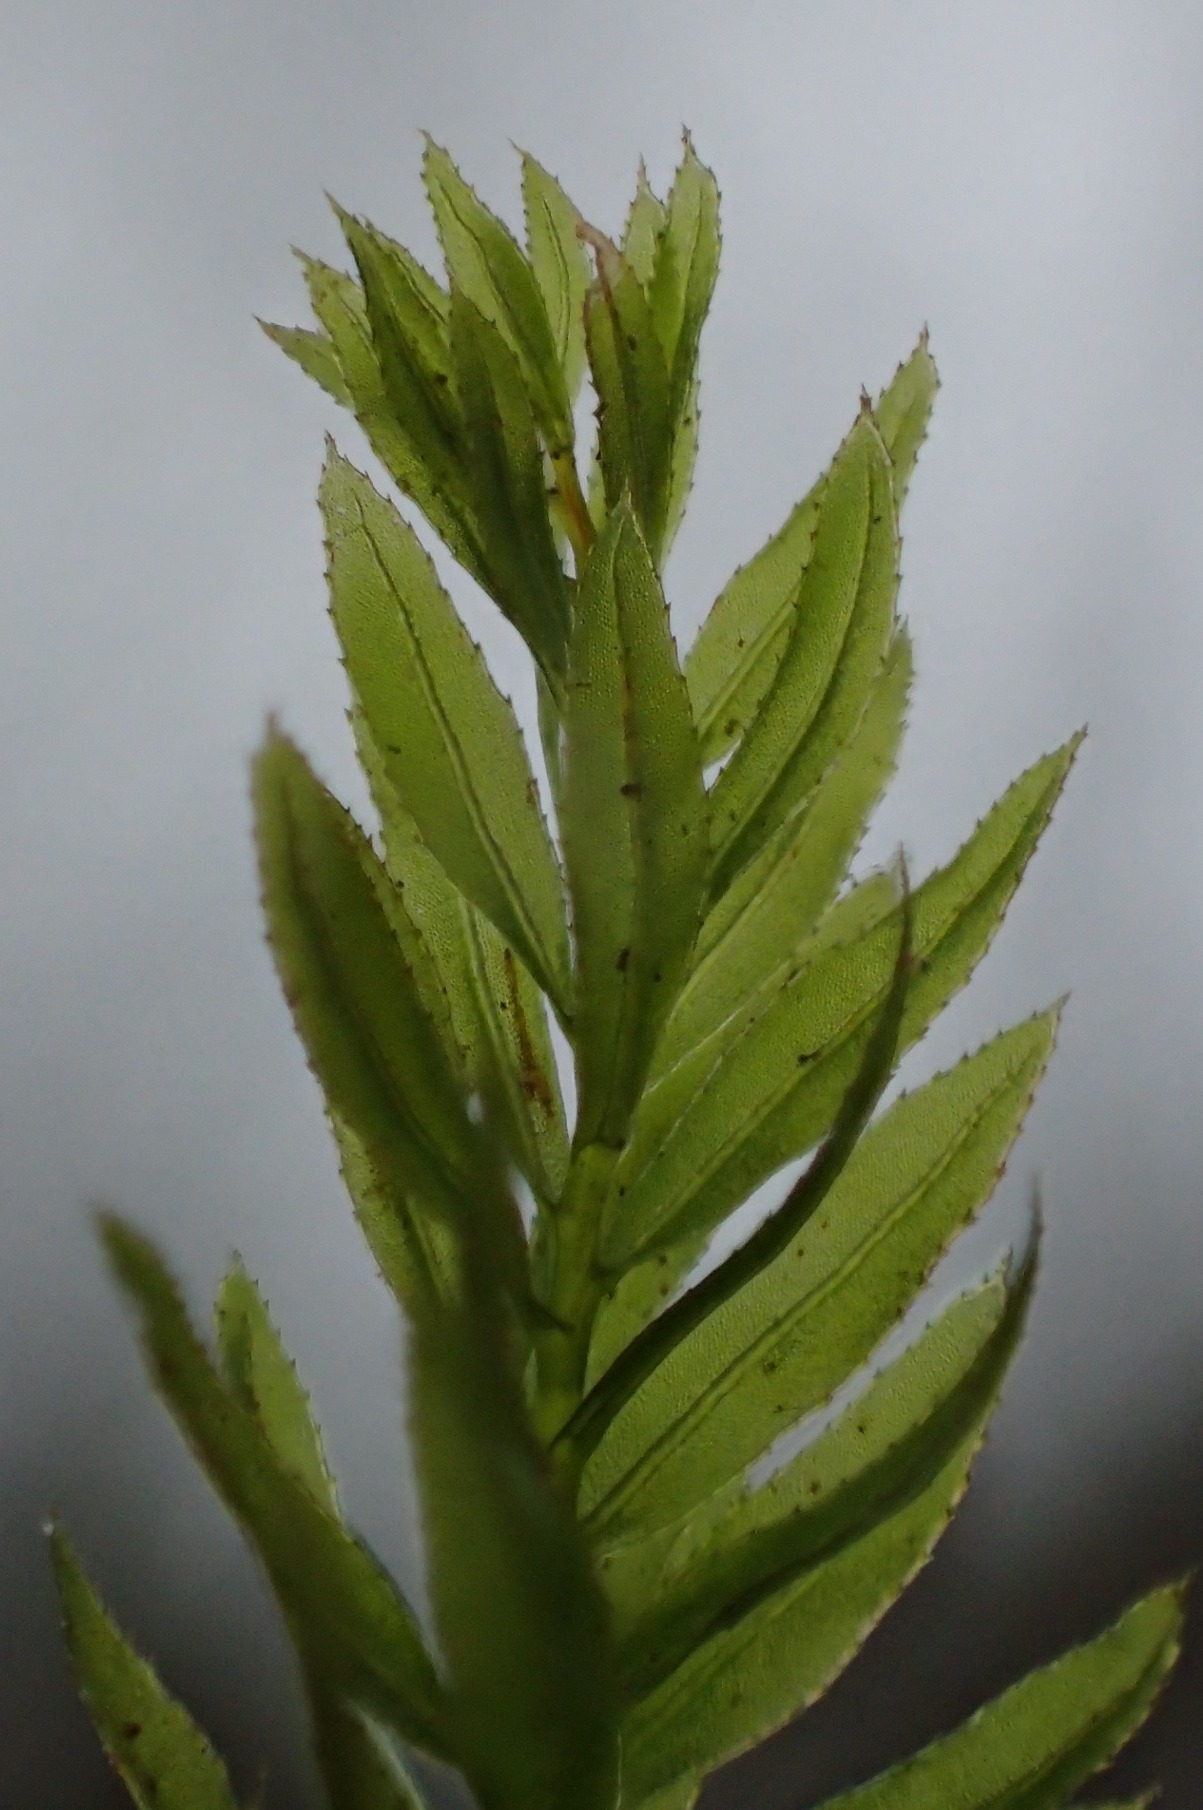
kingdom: Plantae
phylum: Bryophyta
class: Bryopsida
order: Bryales
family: Mniaceae
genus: Mnium
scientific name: Mnium hornum
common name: Brunfiltet stjernemos
